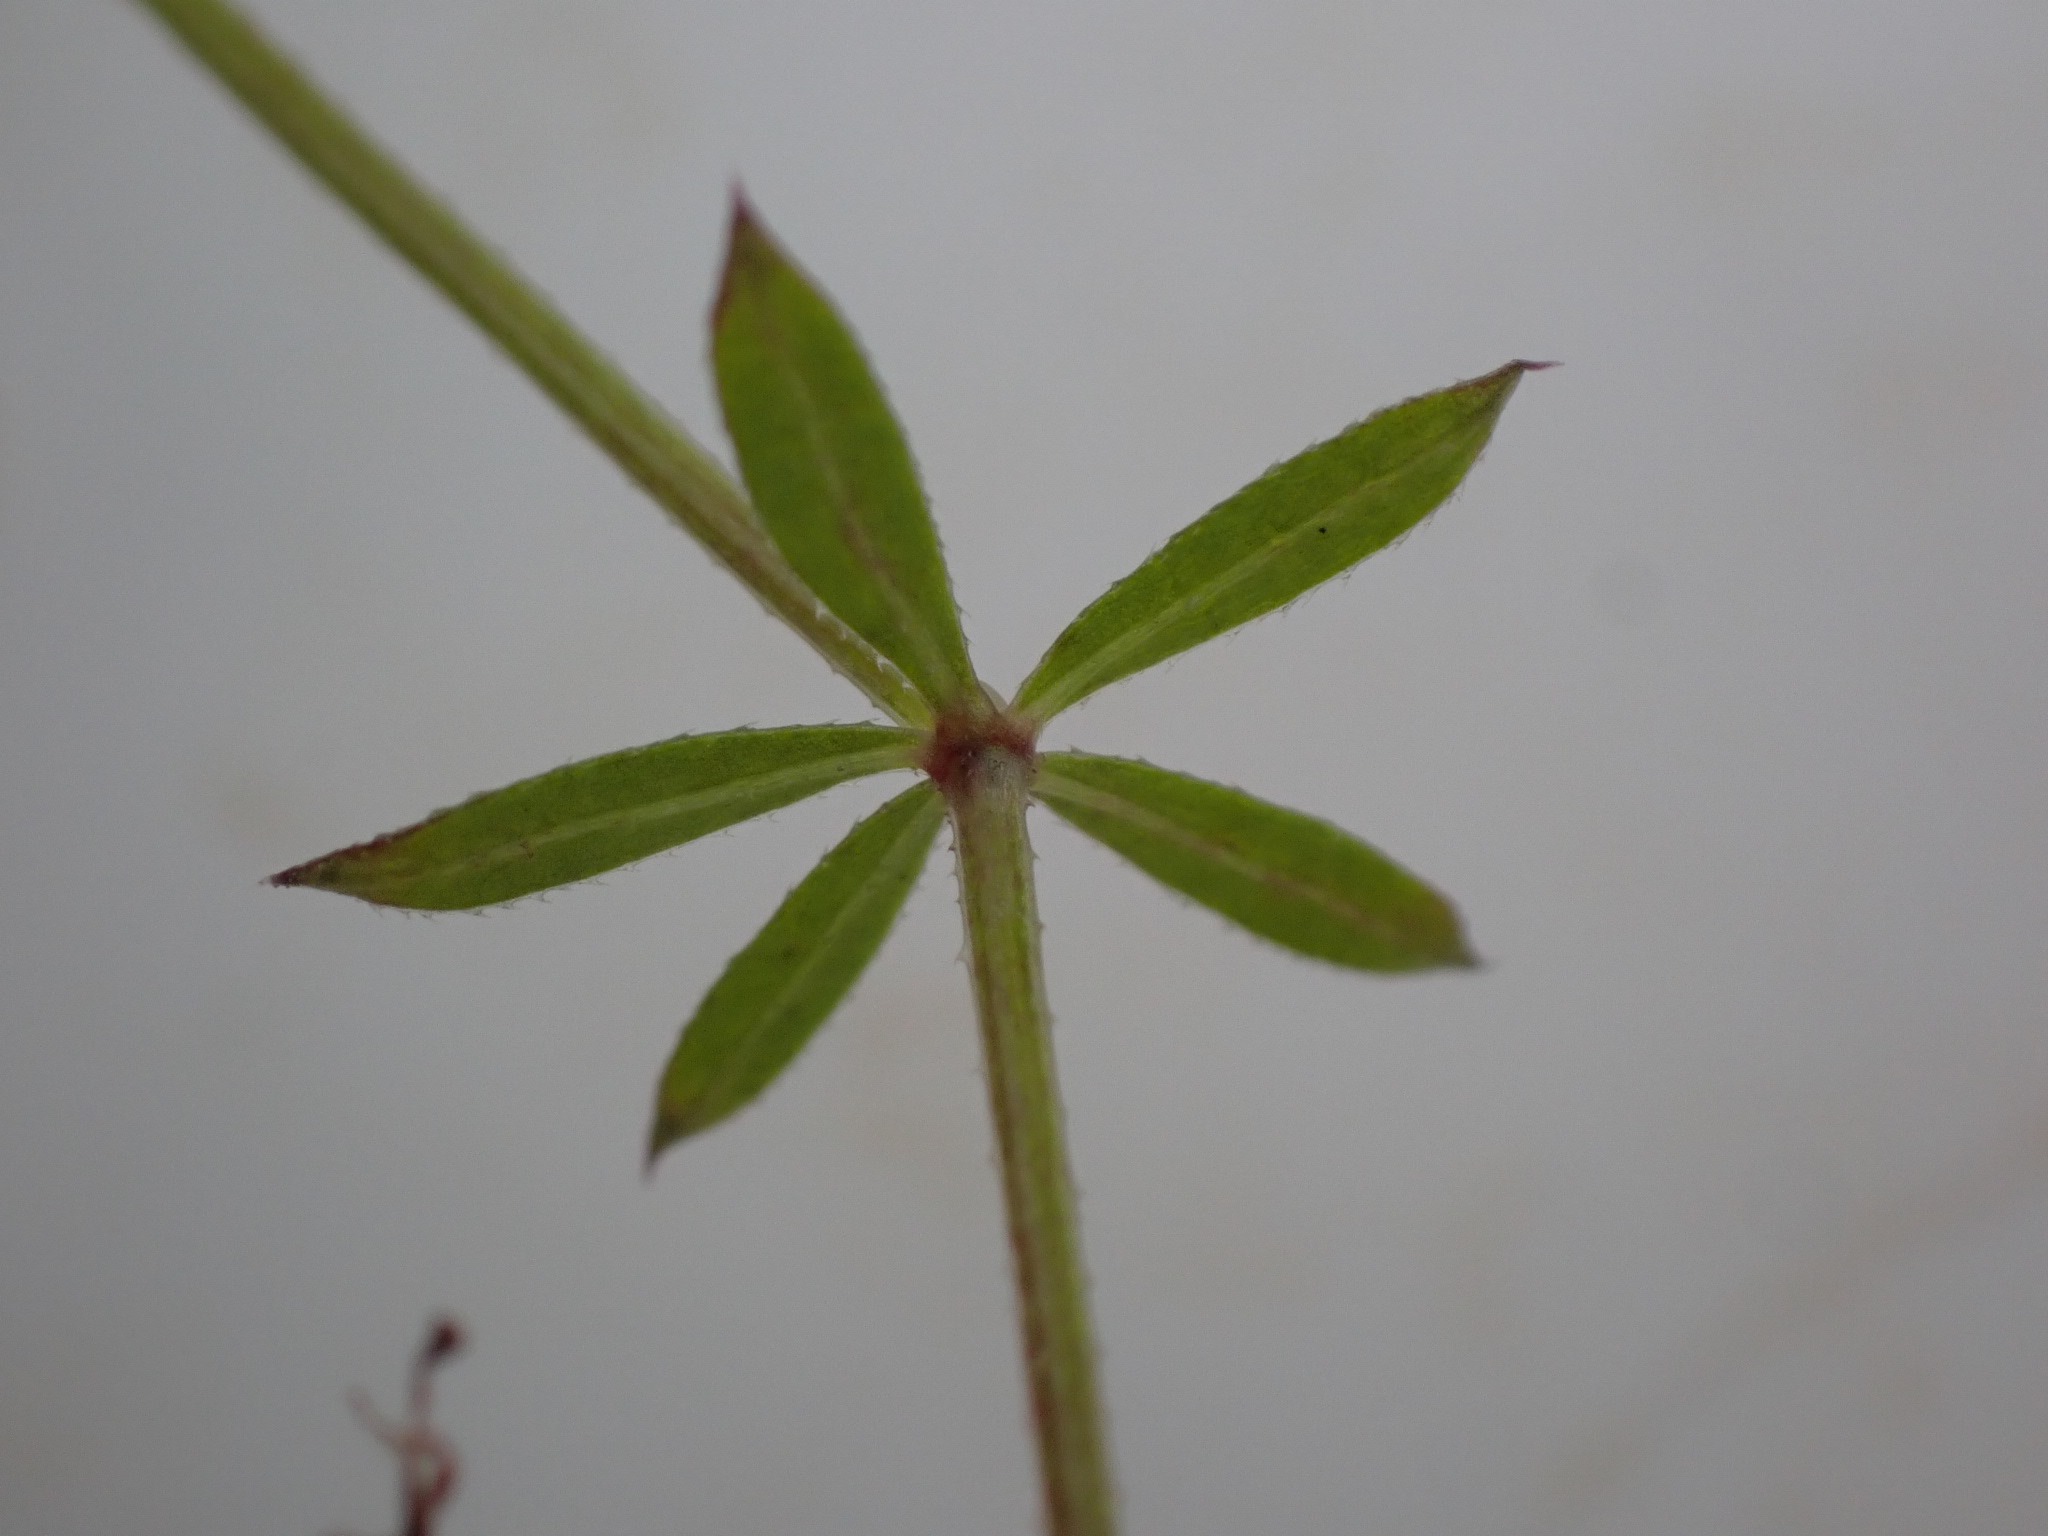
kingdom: Plantae
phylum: Tracheophyta
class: Magnoliopsida
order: Gentianales
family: Rubiaceae
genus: Galium
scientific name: Galium uliginosum
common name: Sump-snerre
